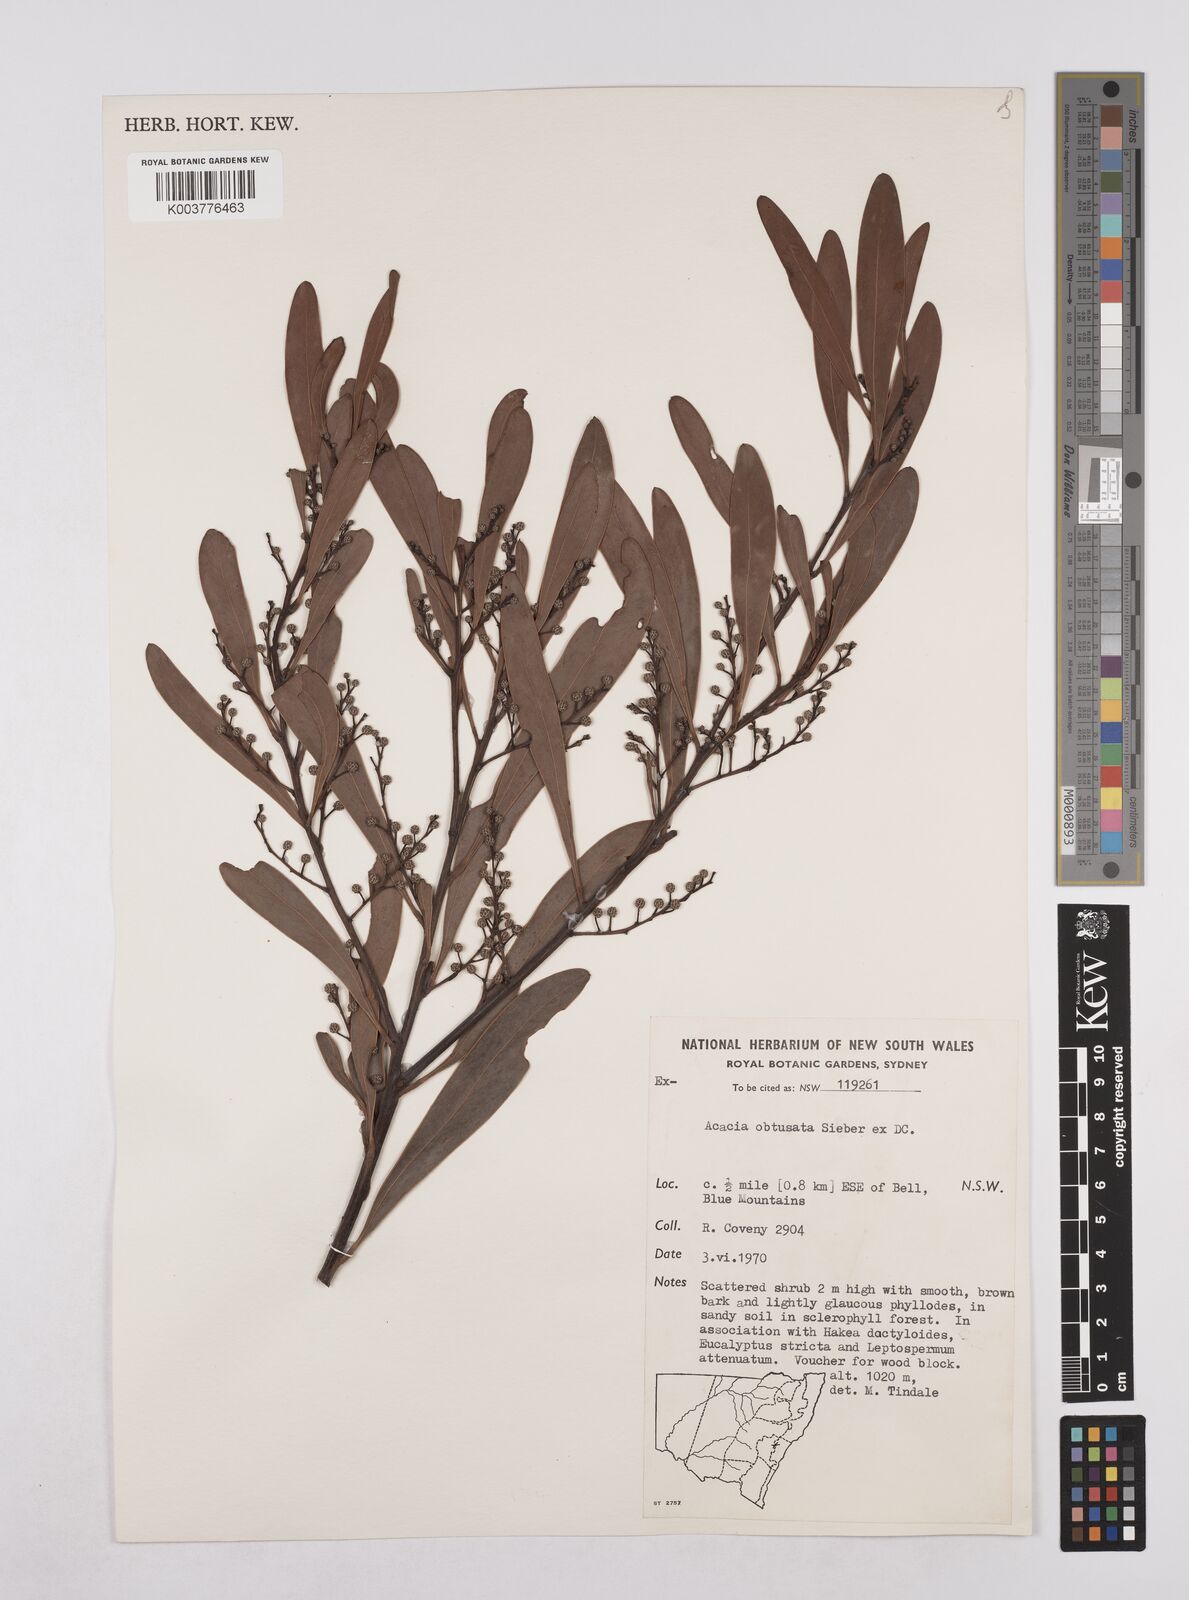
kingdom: Plantae
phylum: Tracheophyta
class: Magnoliopsida
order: Fabales
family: Fabaceae
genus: Acacia
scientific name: Acacia obtusata
